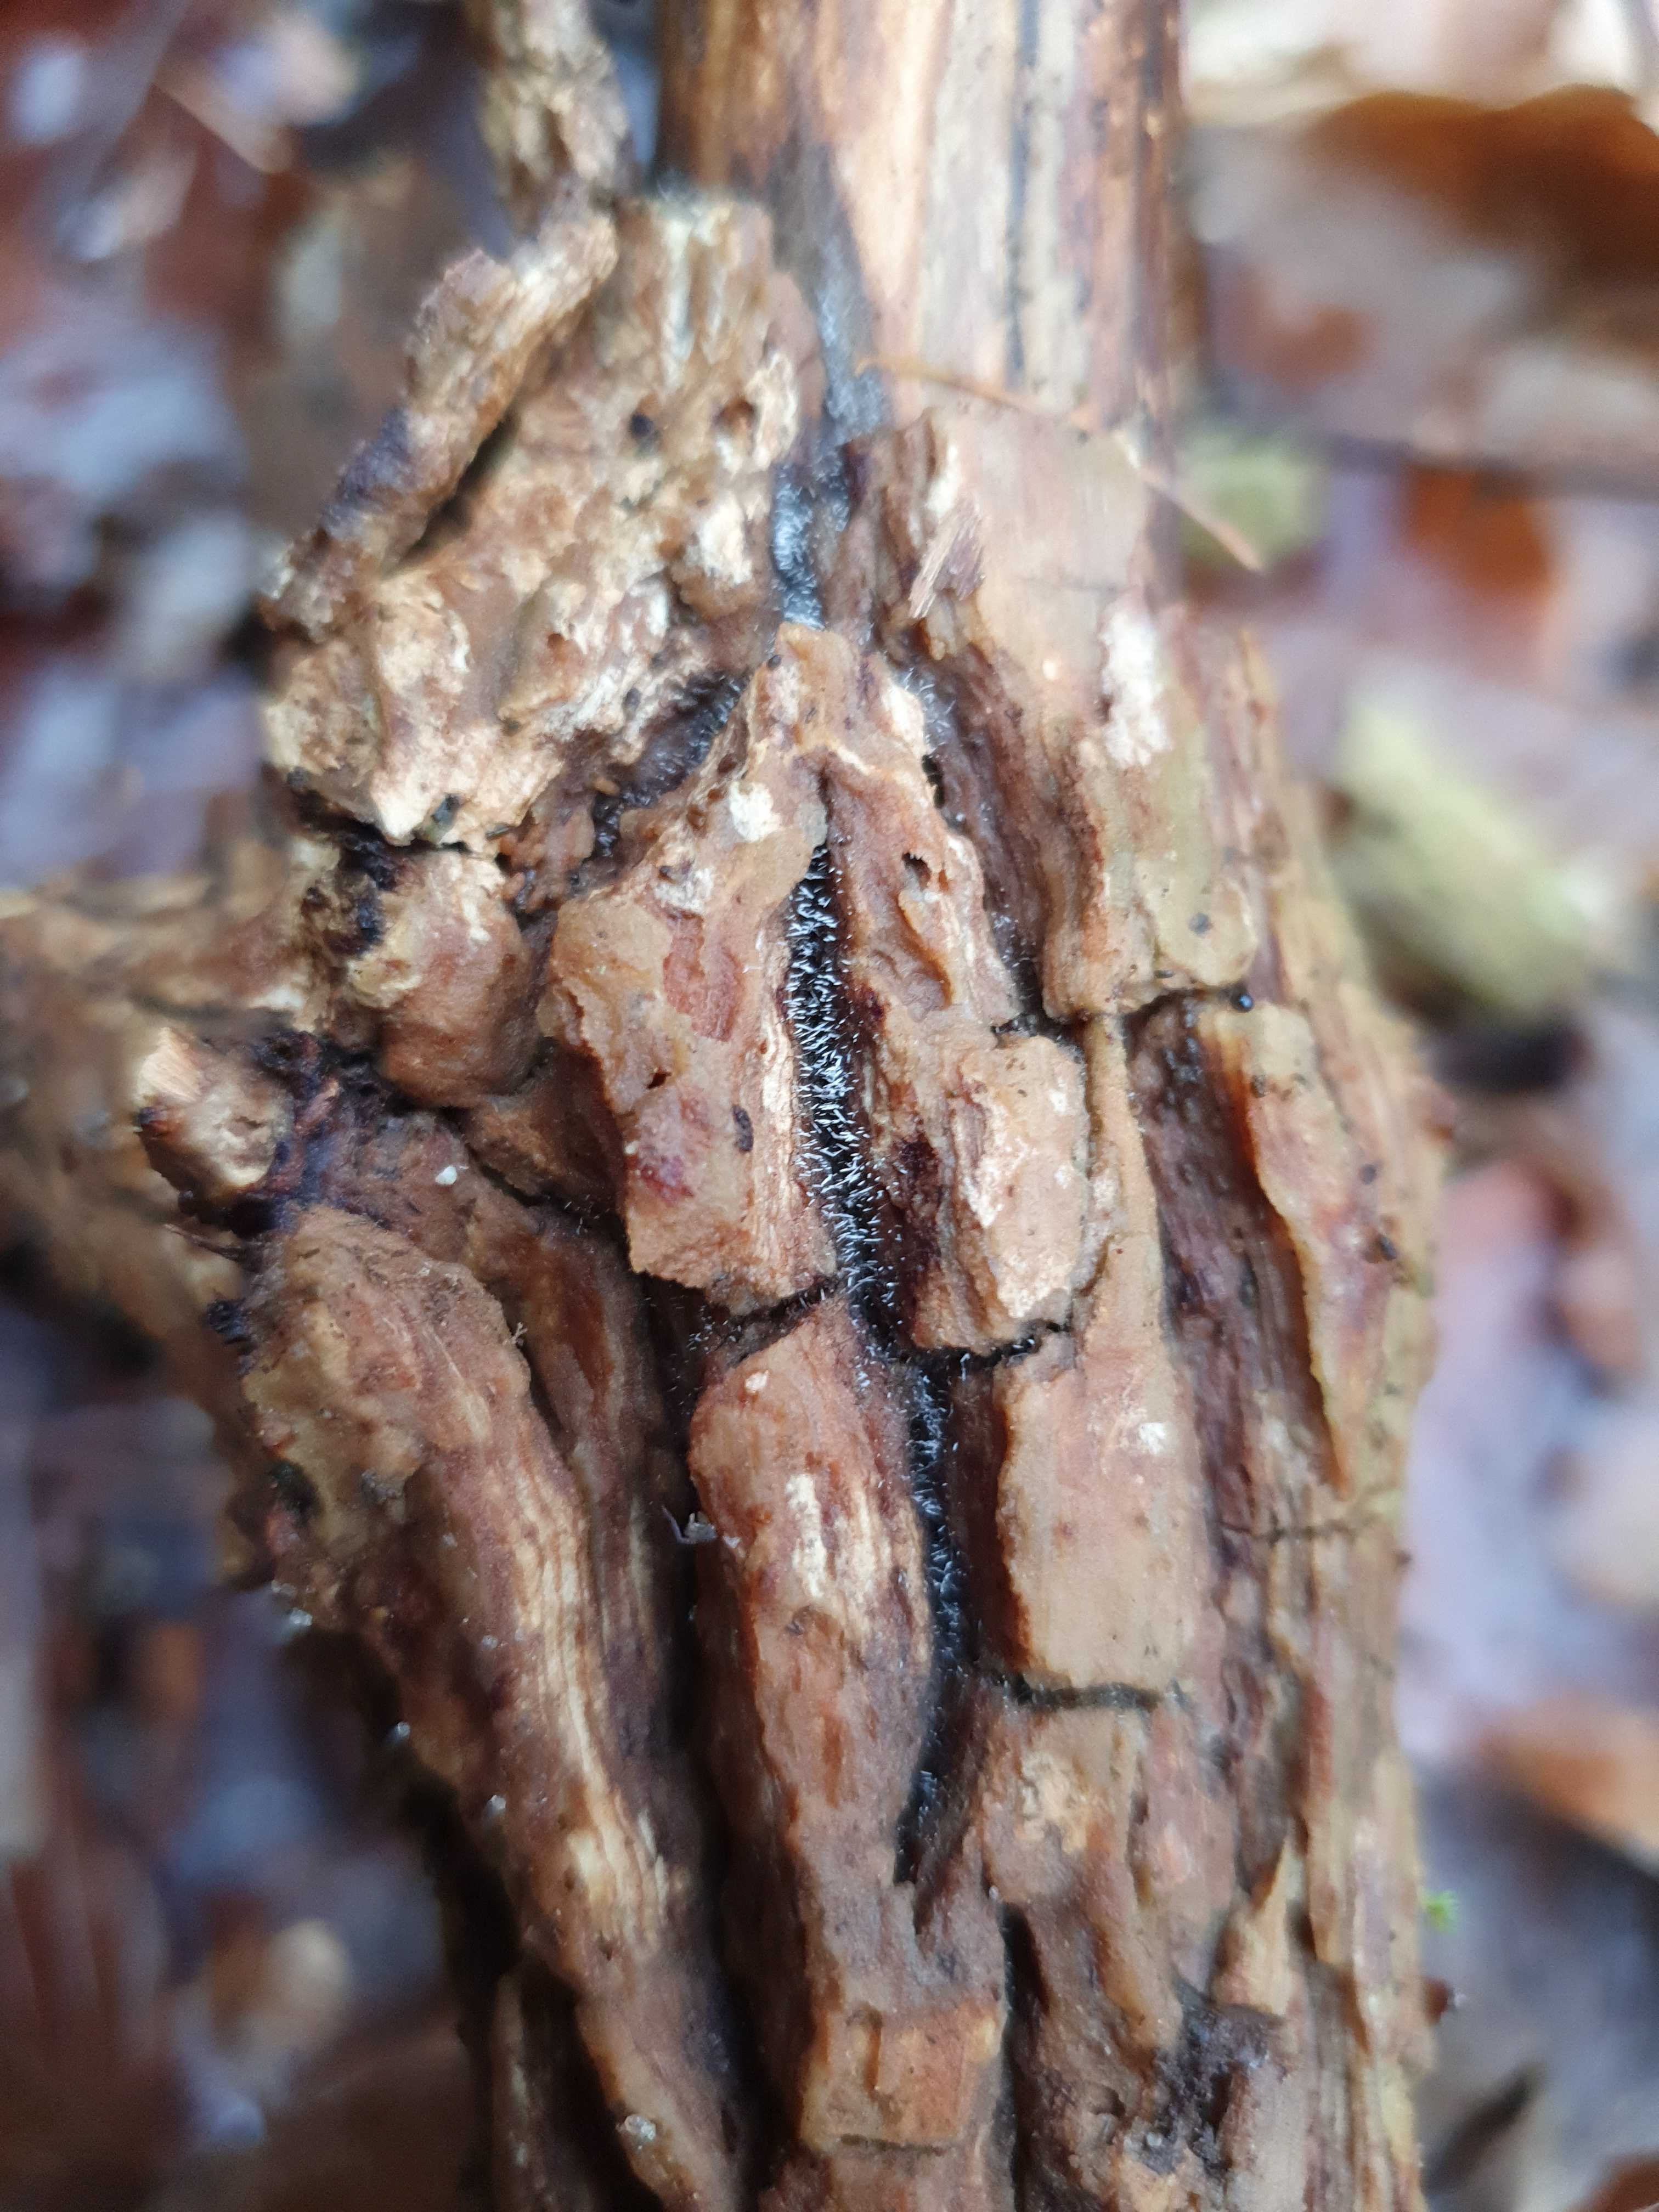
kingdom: Fungi
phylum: Ascomycota
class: Sordariomycetes
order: Microascales
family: Microascaceae
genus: Cephalotrichum
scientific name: Cephalotrichum stemonitis
